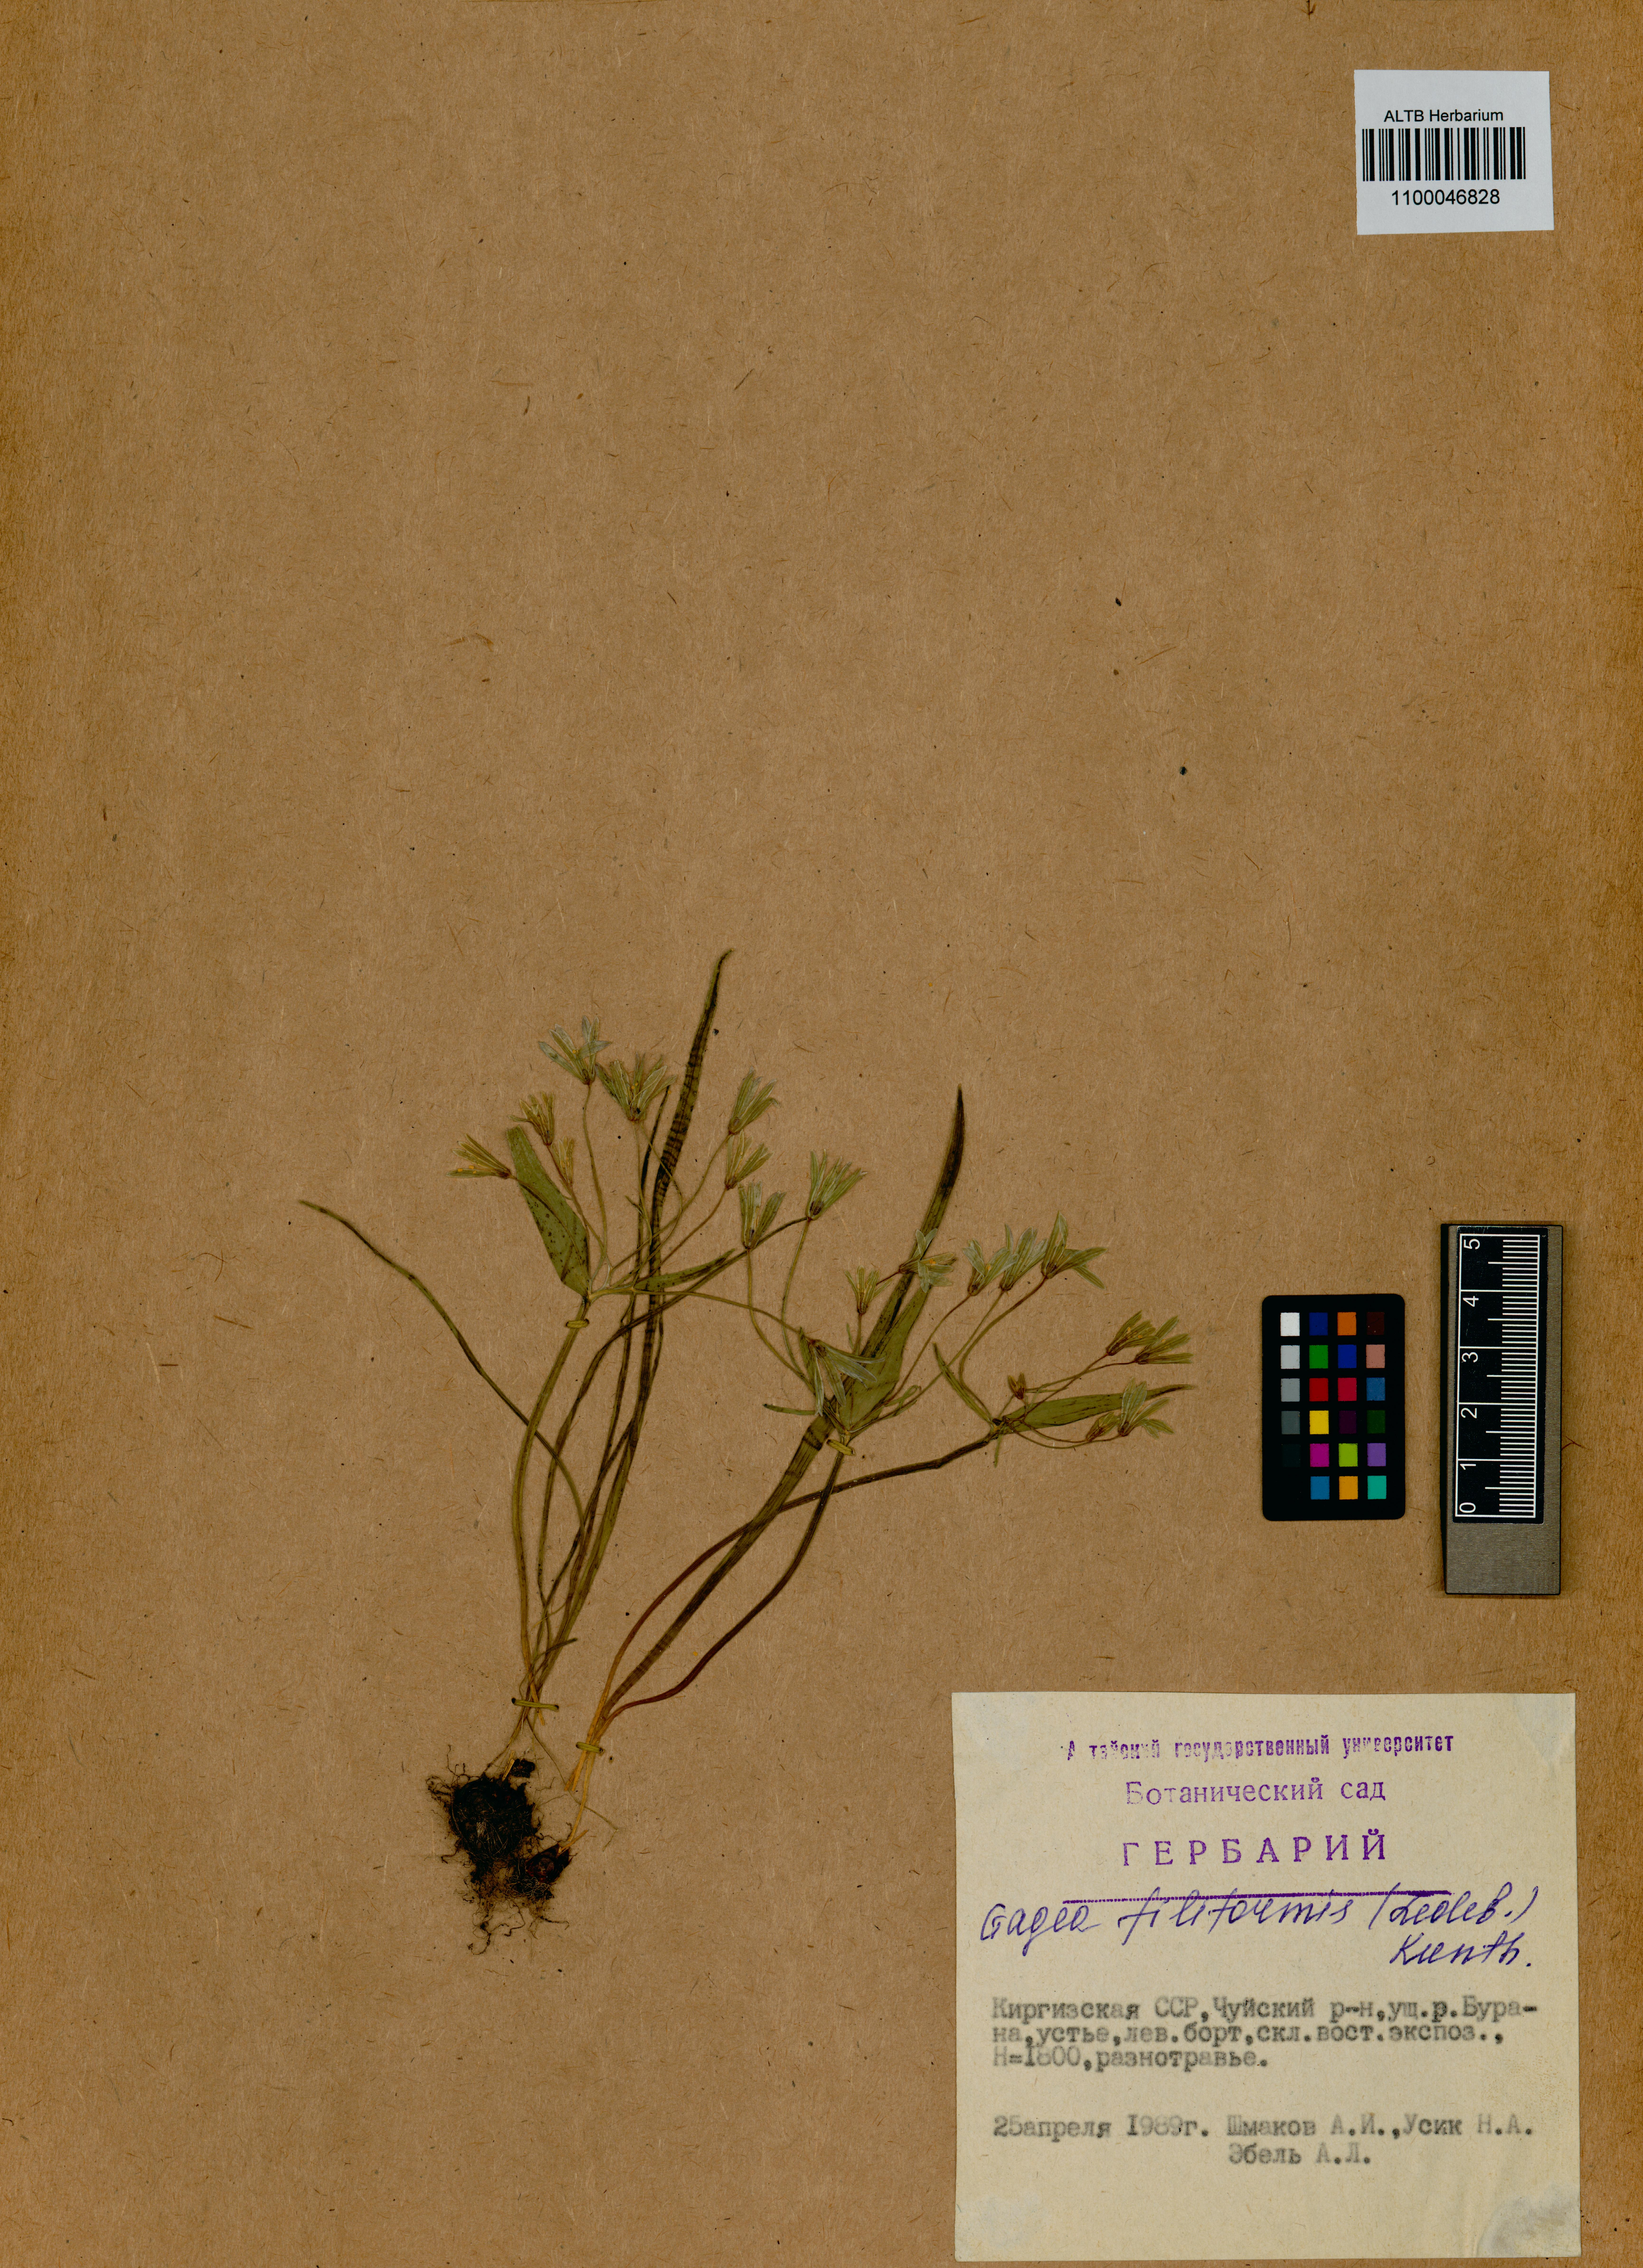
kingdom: Plantae
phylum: Tracheophyta
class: Liliopsida
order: Liliales
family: Liliaceae
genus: Gagea
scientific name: Gagea filiformis
